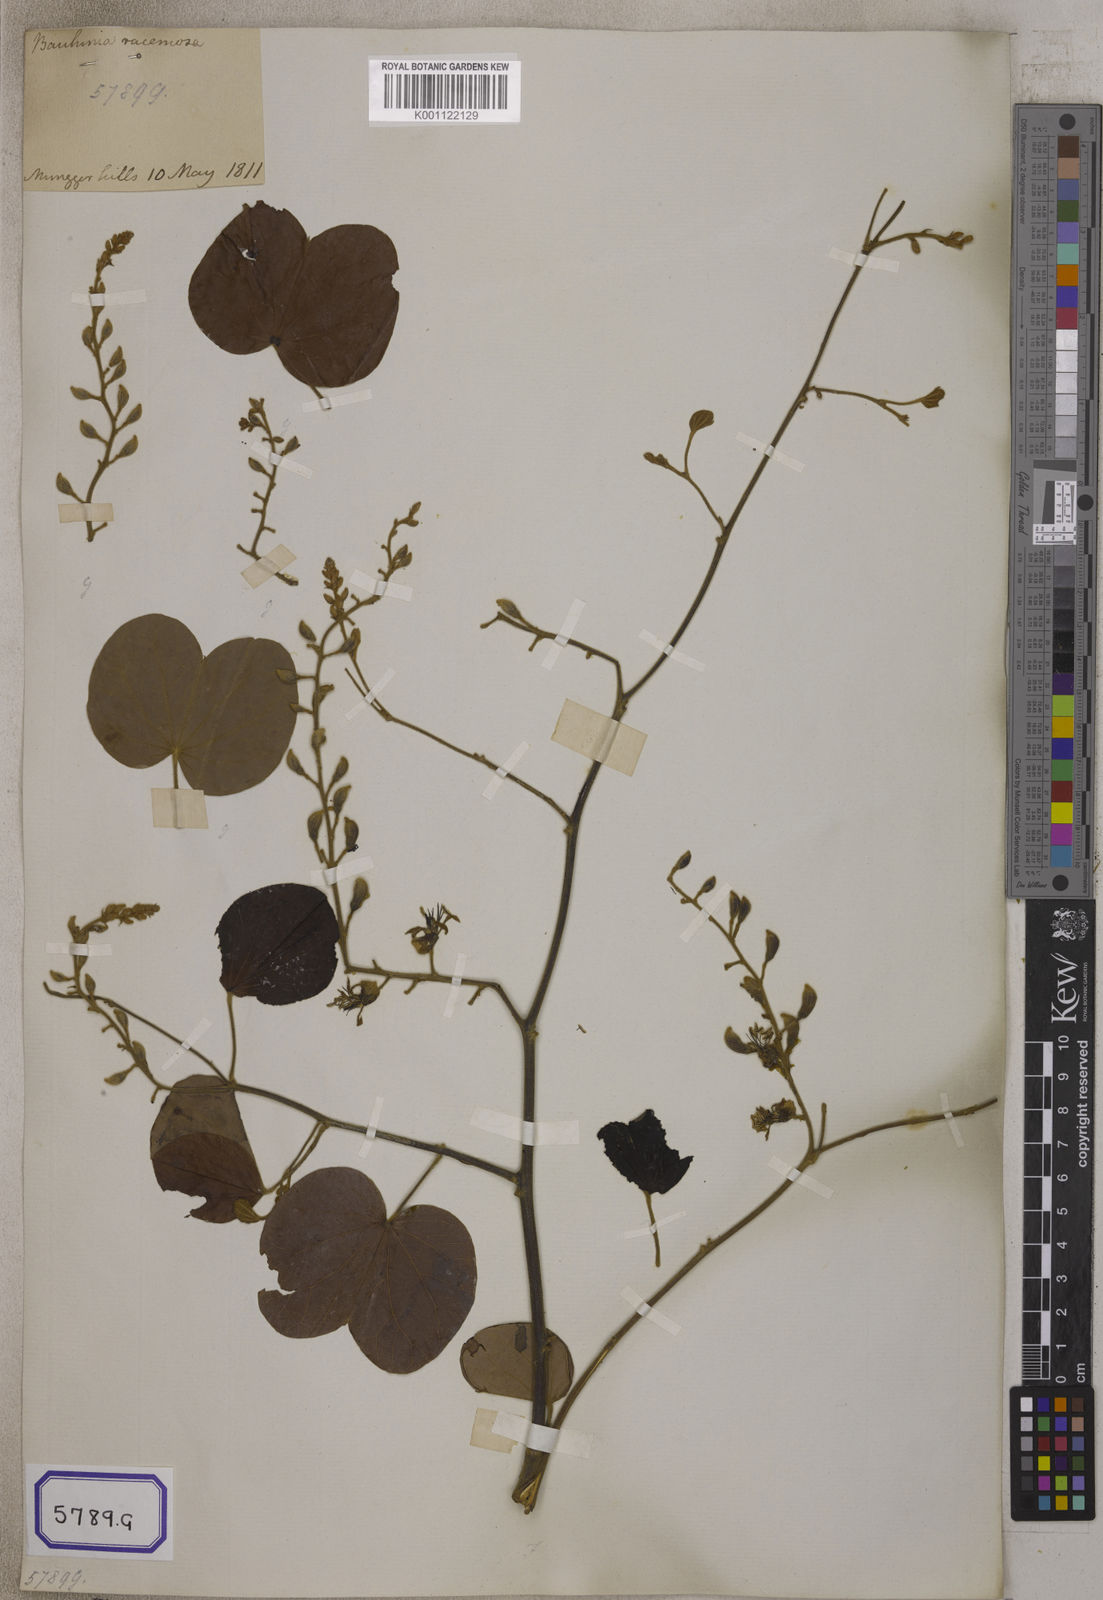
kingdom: Plantae
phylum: Tracheophyta
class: Magnoliopsida
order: Fabales
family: Fabaceae
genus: Bauhinia
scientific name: Bauhinia
